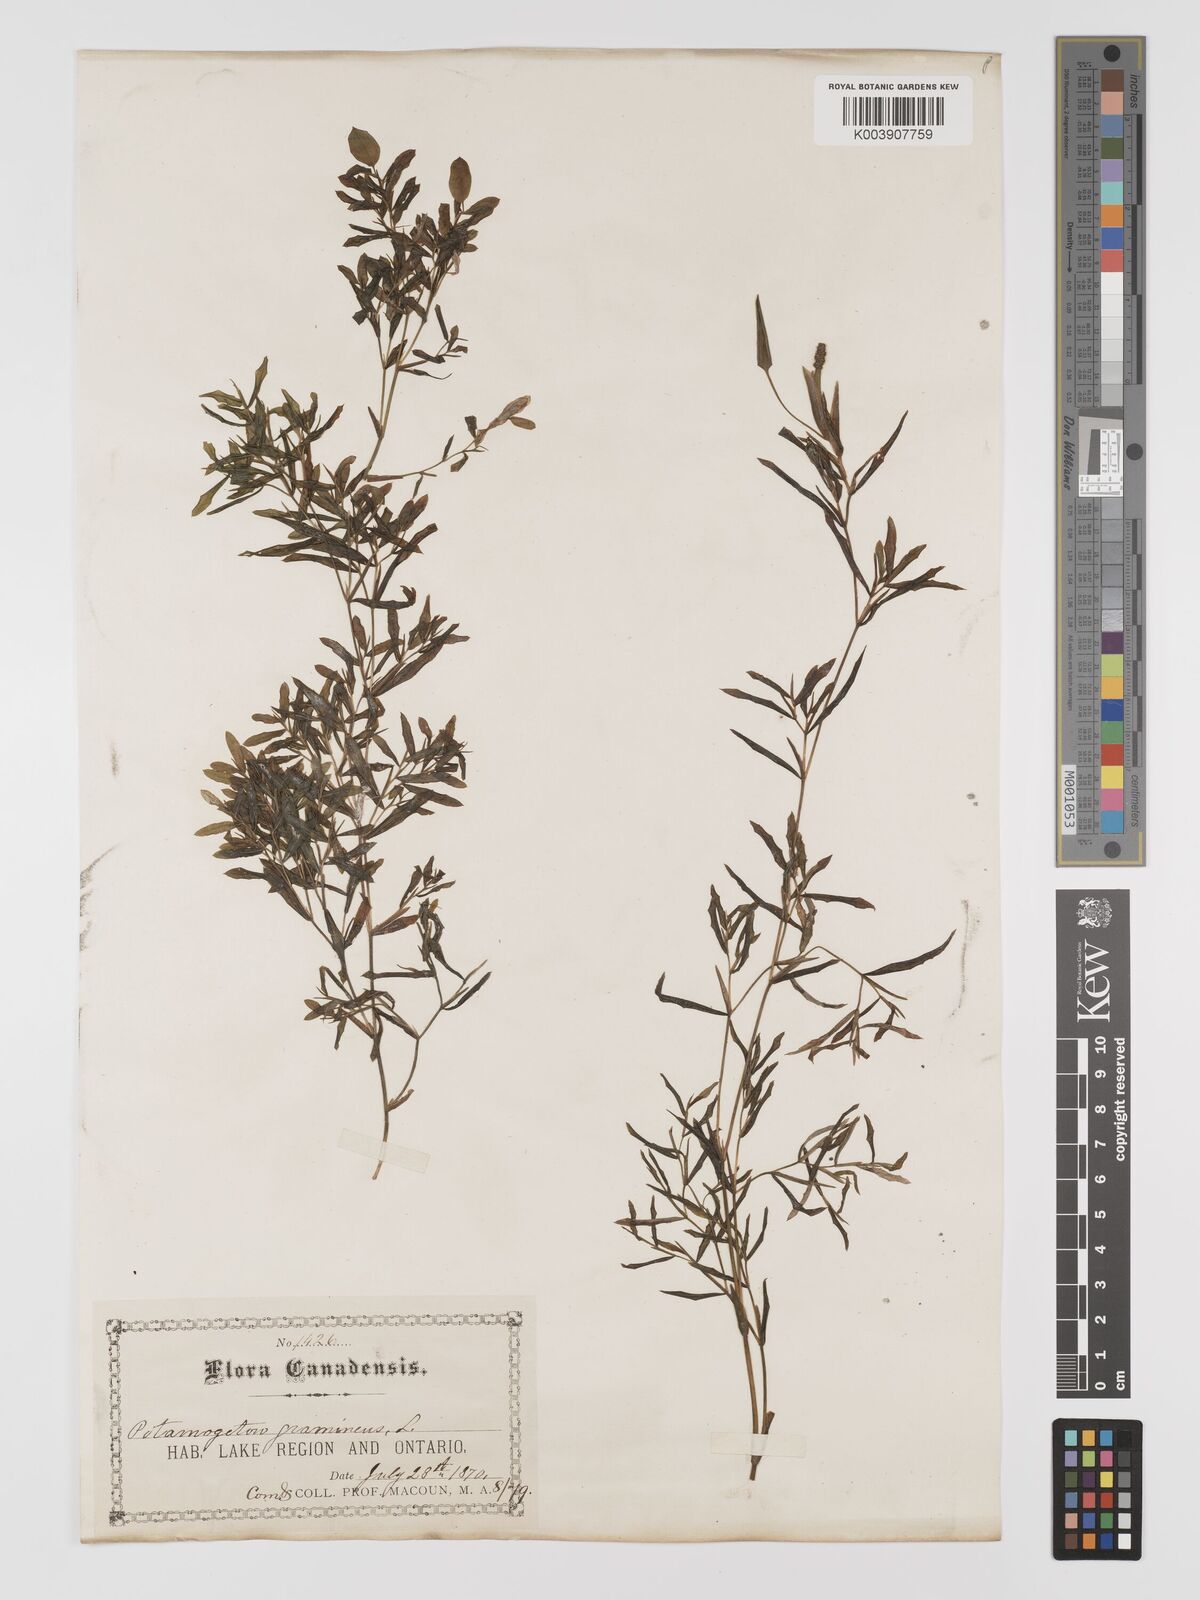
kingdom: Plantae
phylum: Tracheophyta
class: Liliopsida
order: Alismatales
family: Potamogetonaceae
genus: Potamogeton
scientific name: Potamogeton gramineus
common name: Various-leaved pondweed
